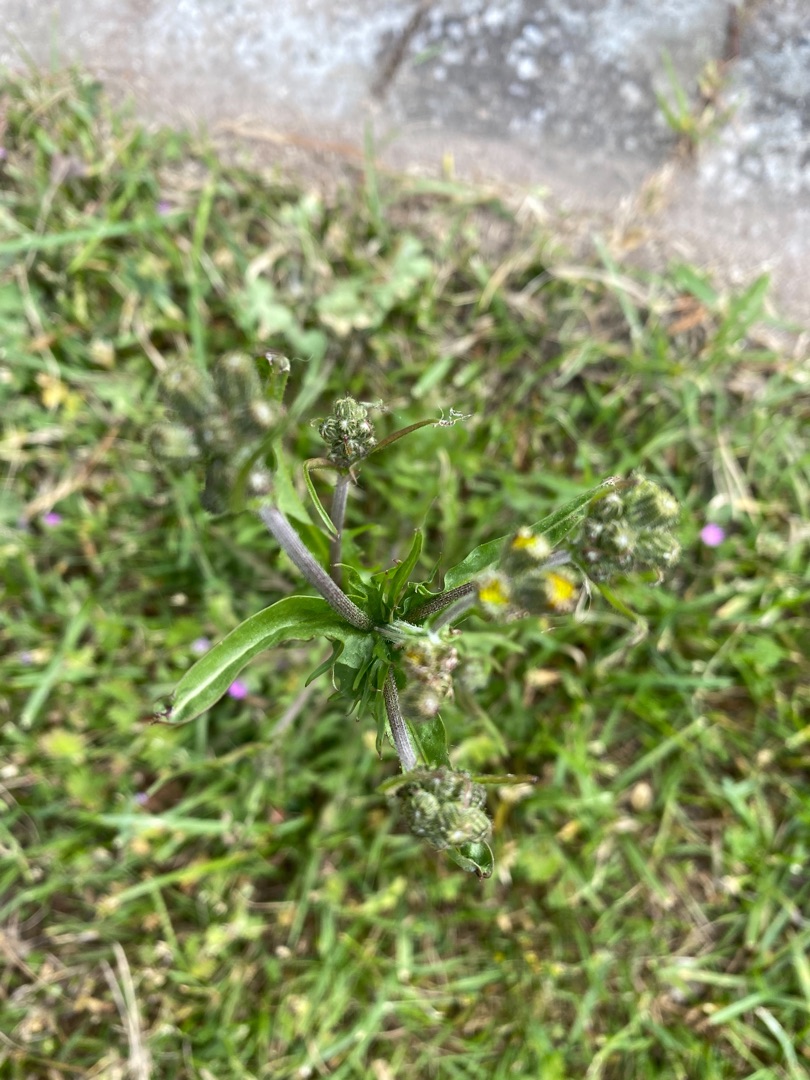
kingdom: Plantae
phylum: Tracheophyta
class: Magnoliopsida
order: Asterales
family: Asteraceae
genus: Crepis
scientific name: Crepis capillaris
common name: Grøn høgeskæg
